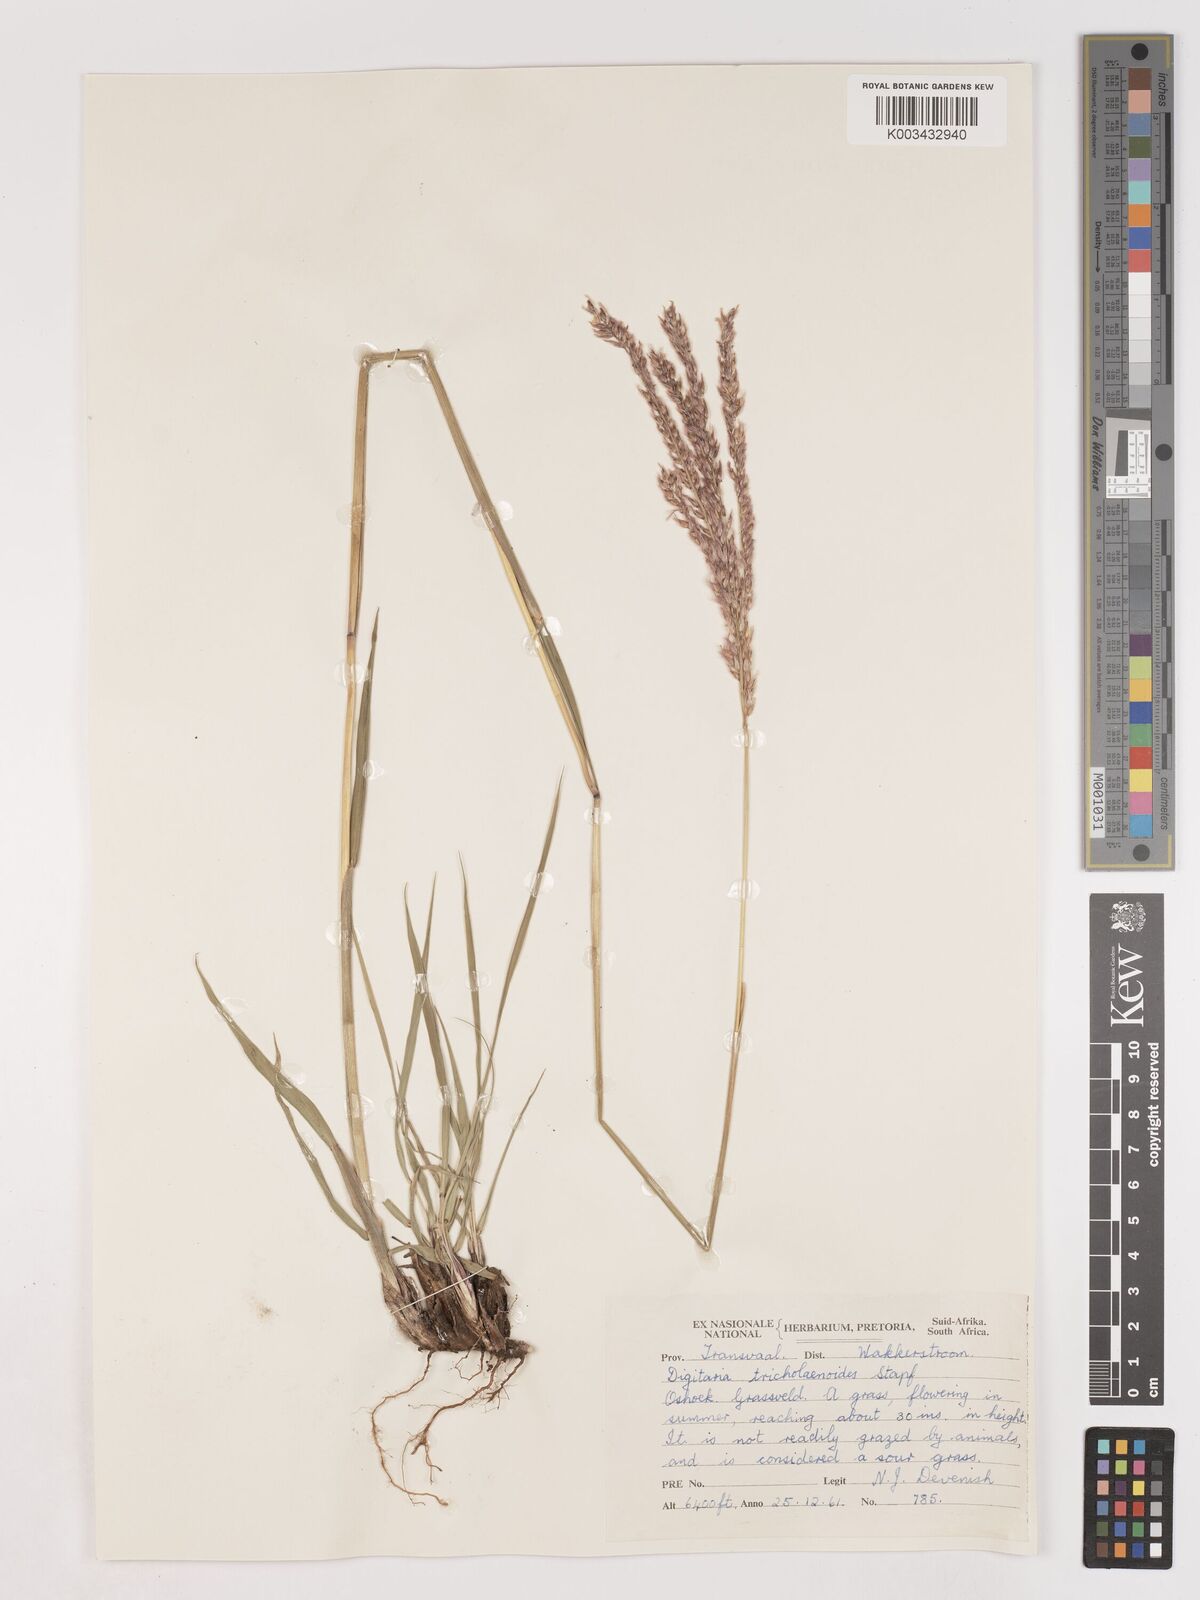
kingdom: Plantae
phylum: Tracheophyta
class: Liliopsida
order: Poales
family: Poaceae
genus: Digitaria
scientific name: Digitaria tricholaenoides
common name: Purple finger grass
